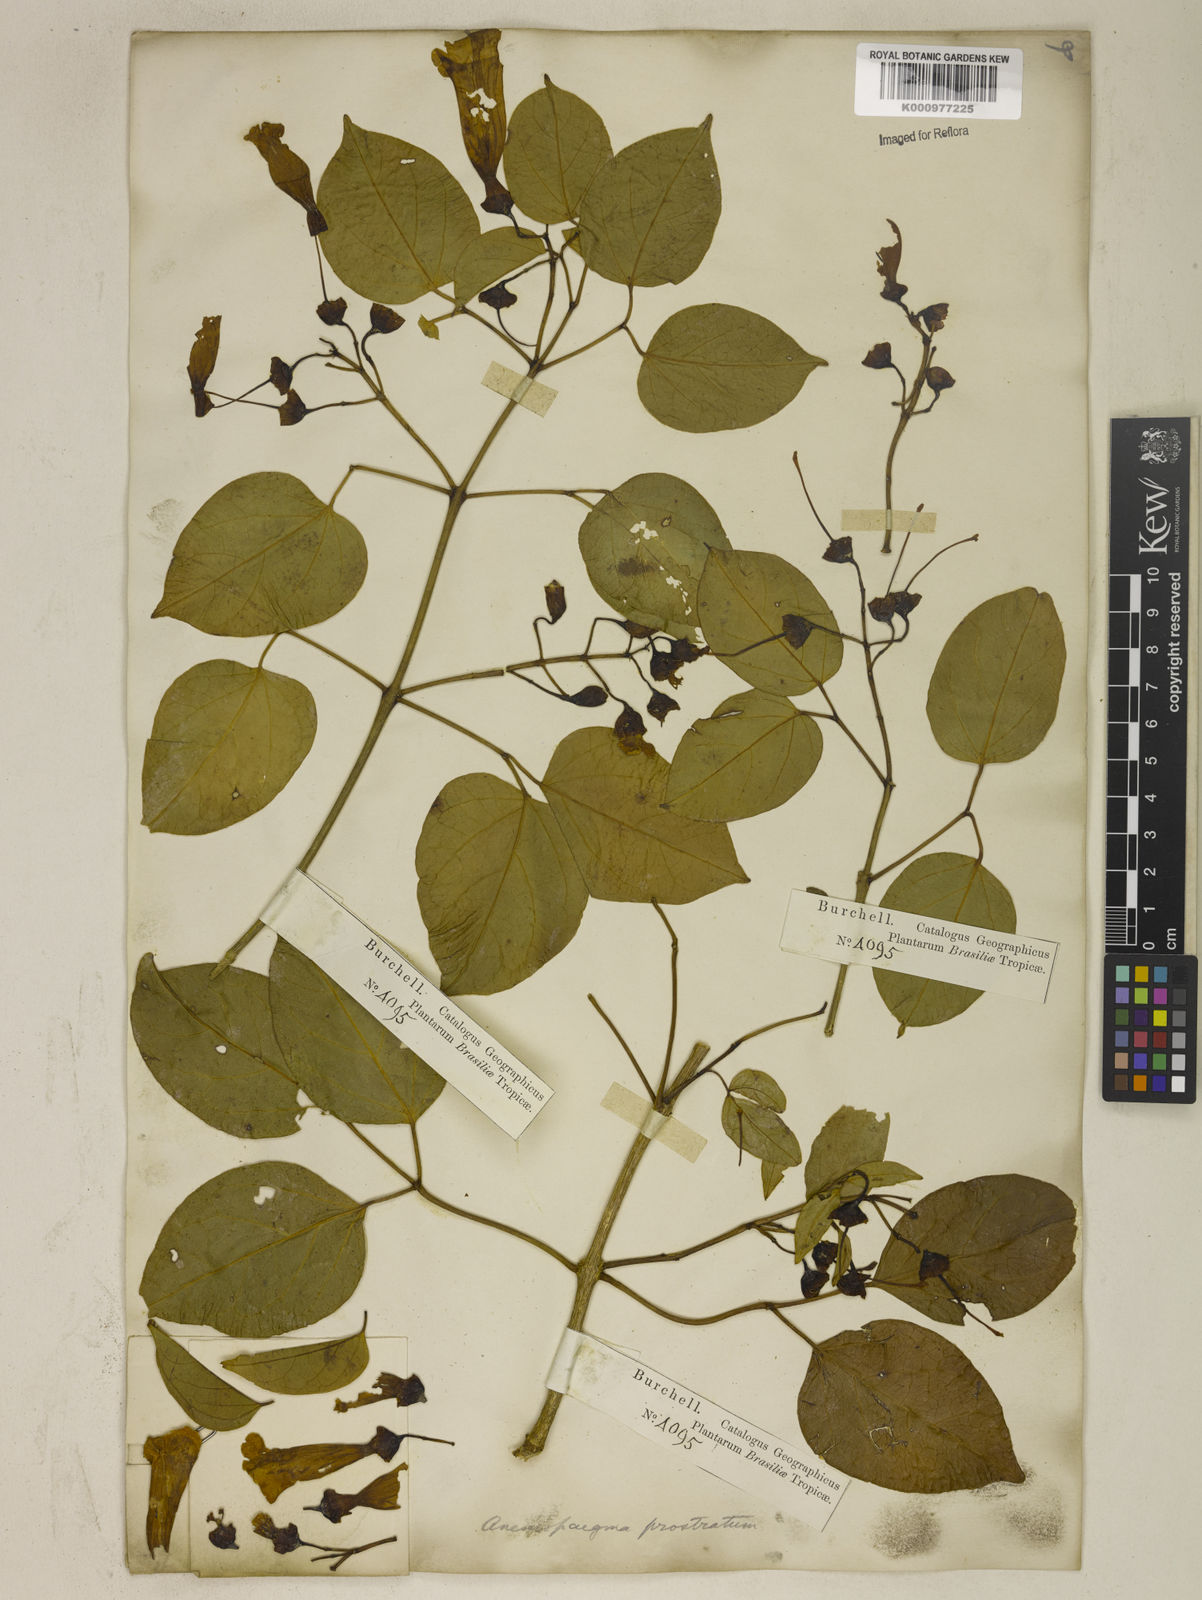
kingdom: Plantae
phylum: Tracheophyta
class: Magnoliopsida
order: Lamiales
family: Bignoniaceae
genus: Anemopaegma
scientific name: Anemopaegma prostratum
